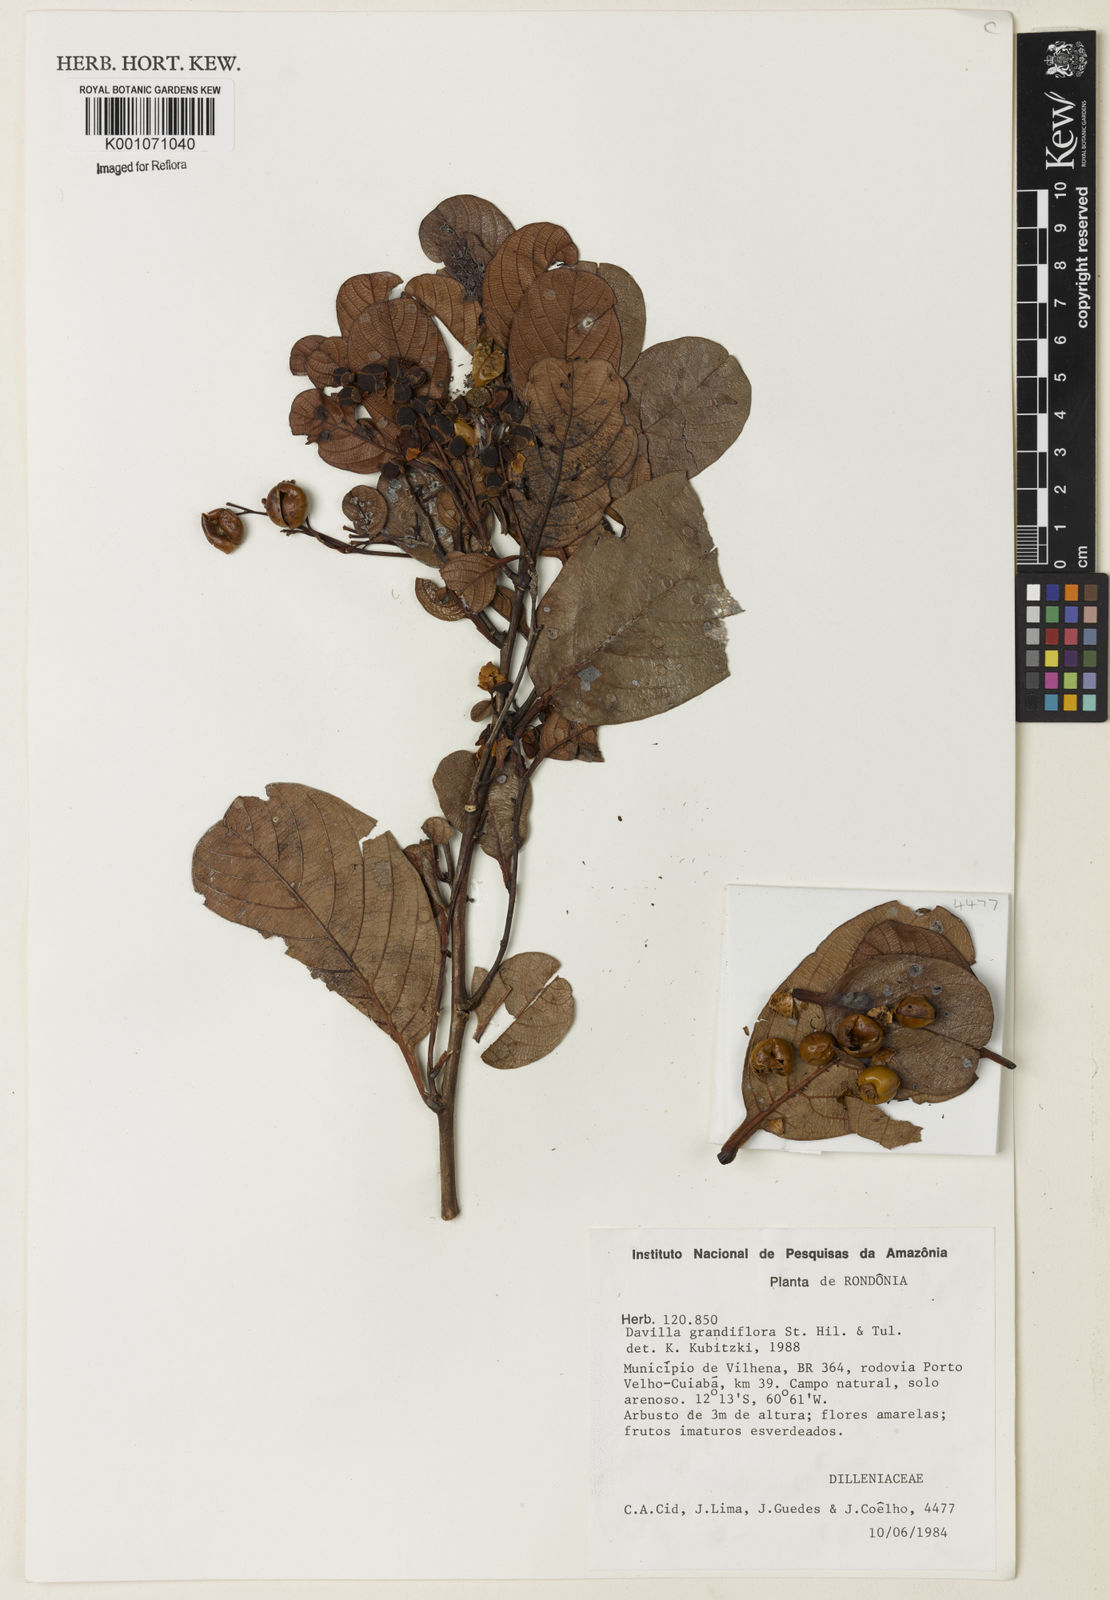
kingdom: Plantae
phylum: Tracheophyta
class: Magnoliopsida
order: Dilleniales
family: Dilleniaceae
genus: Davilla
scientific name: Davilla grandiflora
